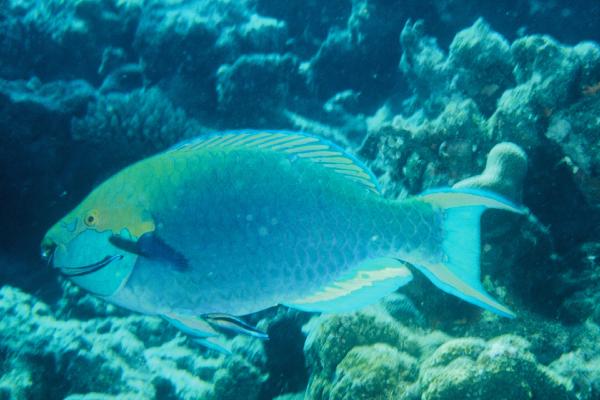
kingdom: Animalia
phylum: Chordata
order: Perciformes
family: Scaridae
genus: Scarus
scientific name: Scarus prasiognathos
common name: Singapore parrotfish
